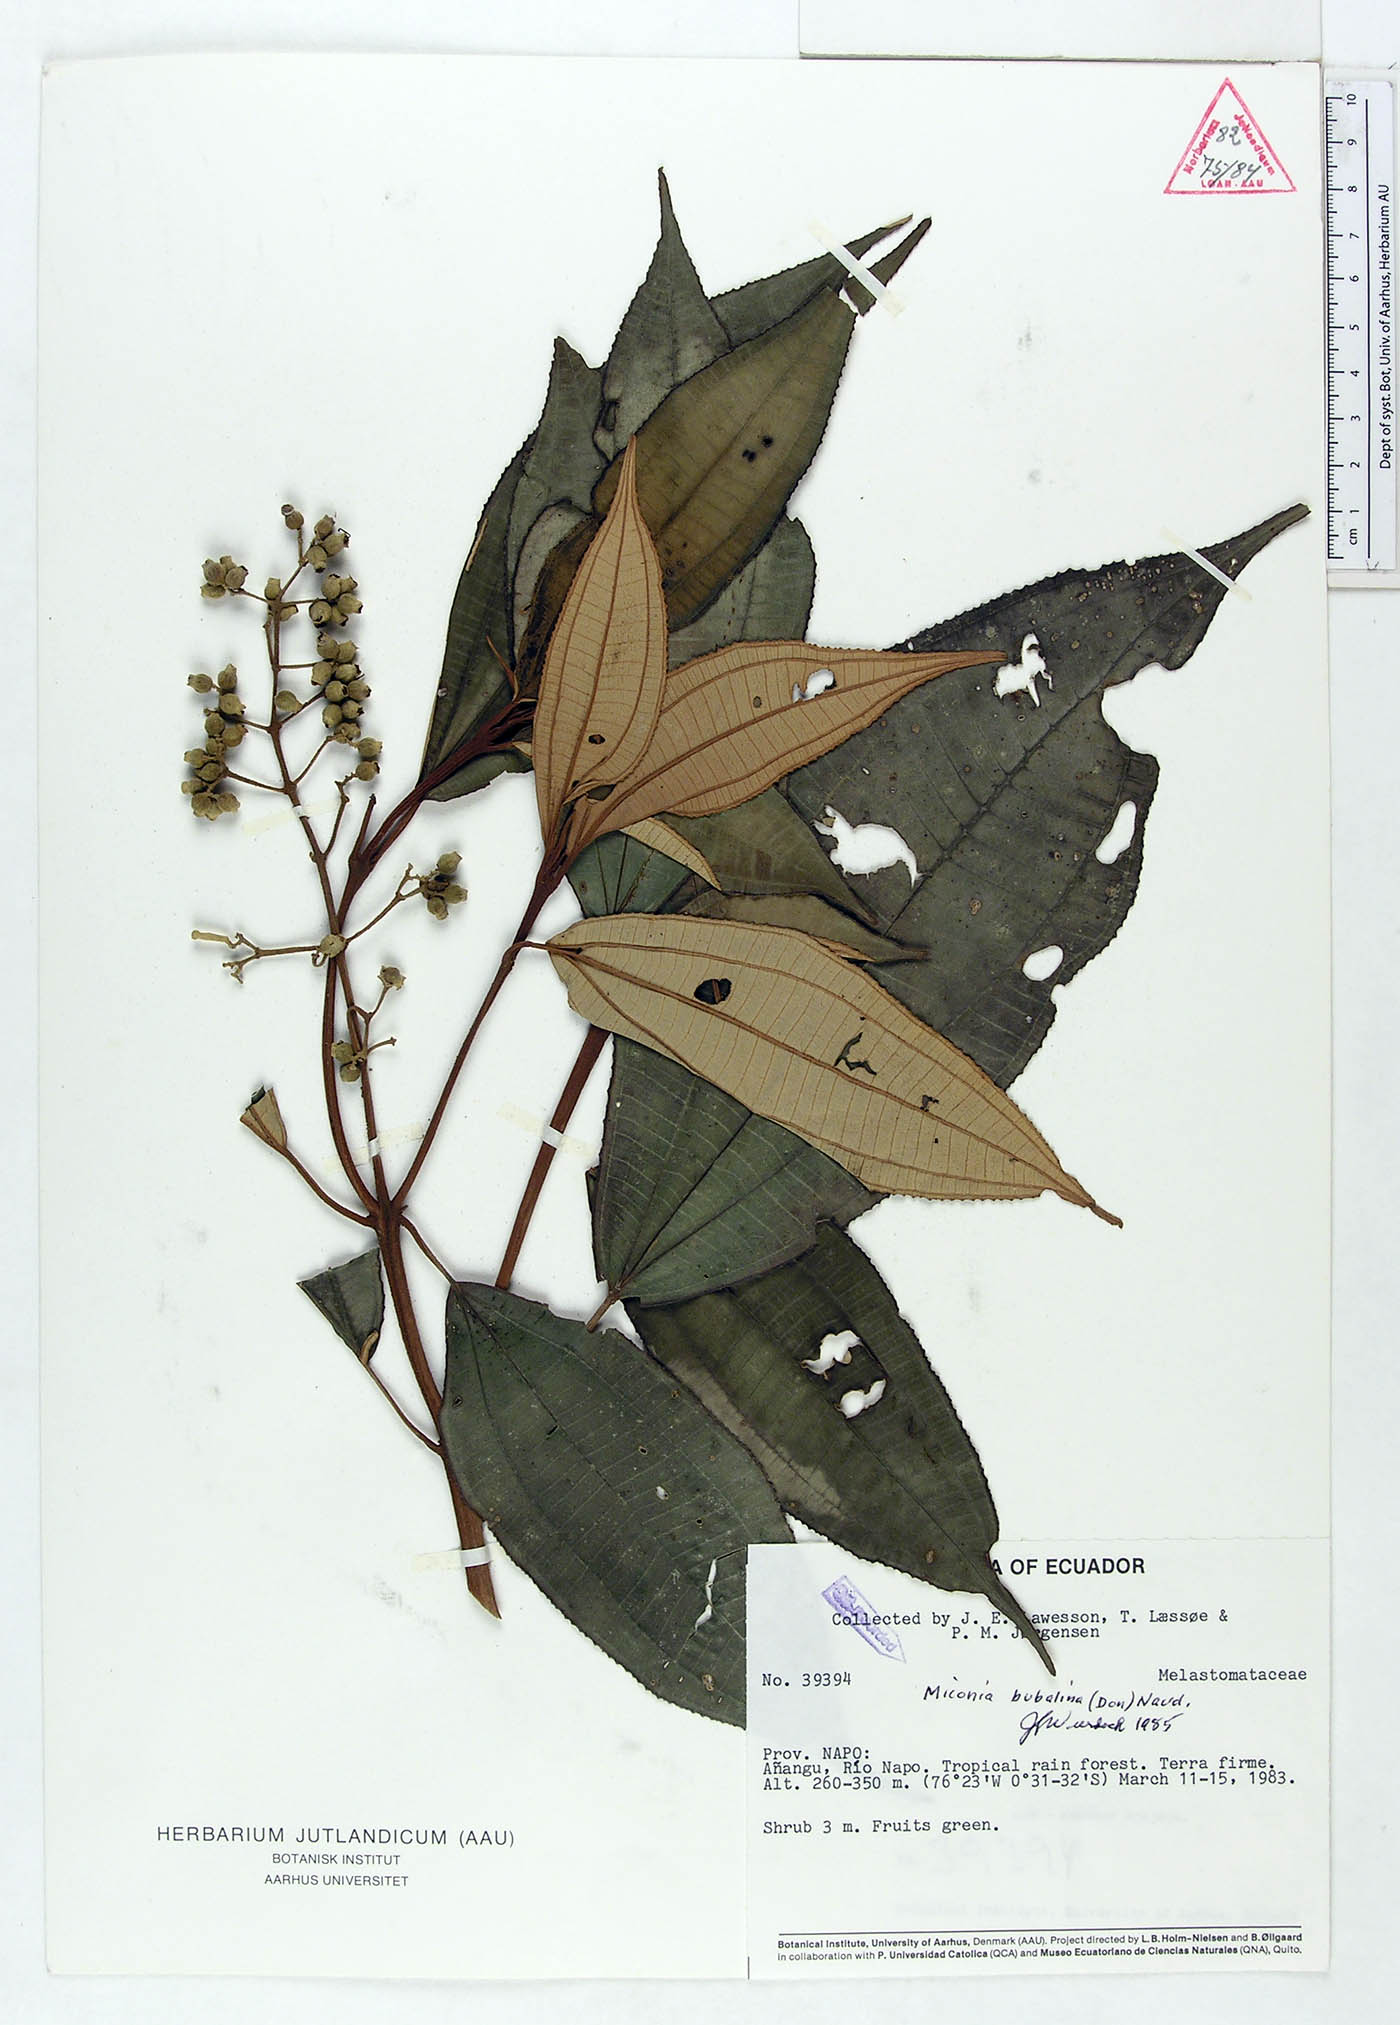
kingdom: Plantae
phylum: Tracheophyta
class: Magnoliopsida
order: Myrtales
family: Melastomataceae
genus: Miconia
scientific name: Miconia bubalina
